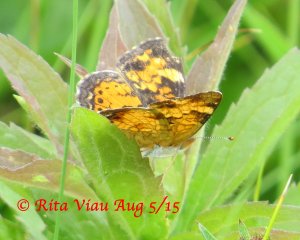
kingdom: Animalia
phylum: Arthropoda
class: Insecta
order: Lepidoptera
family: Nymphalidae
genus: Phyciodes
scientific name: Phyciodes tharos
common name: Northern Crescent
